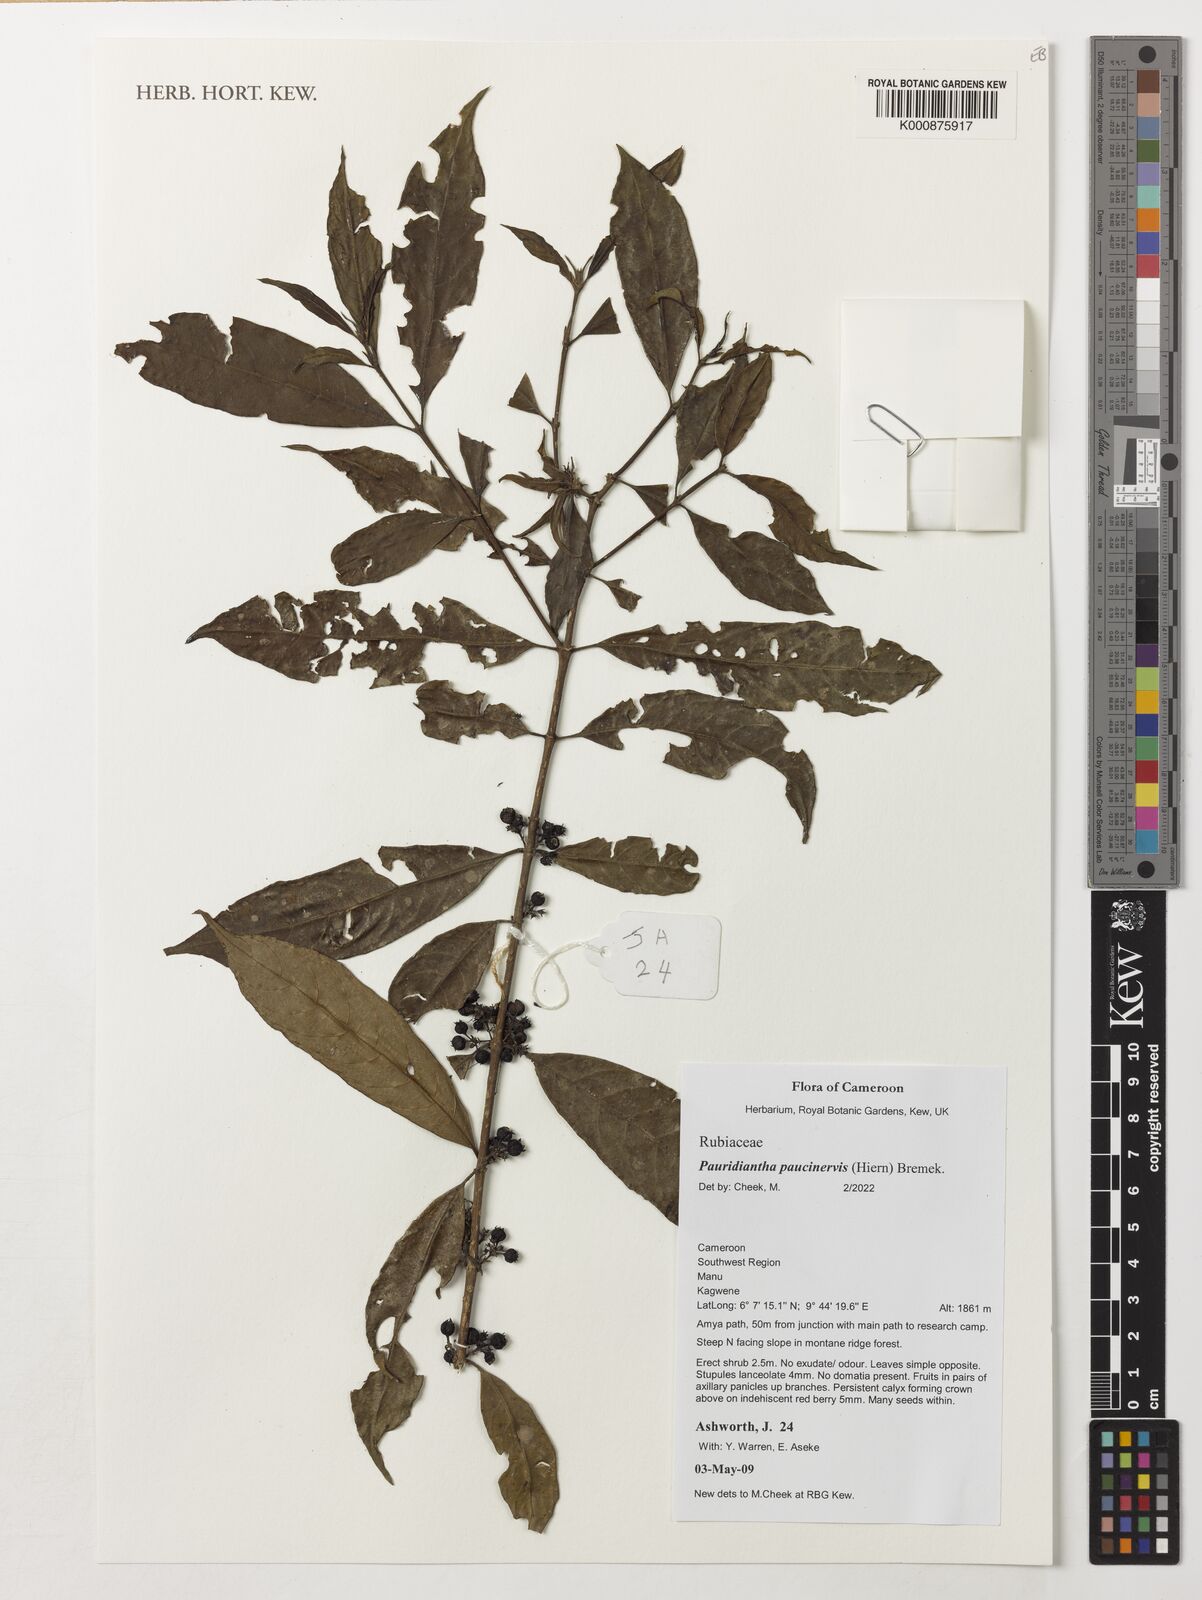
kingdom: Plantae
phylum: Tracheophyta
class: Magnoliopsida
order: Gentianales
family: Rubiaceae
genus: Pauridiantha
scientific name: Pauridiantha paucinervis
